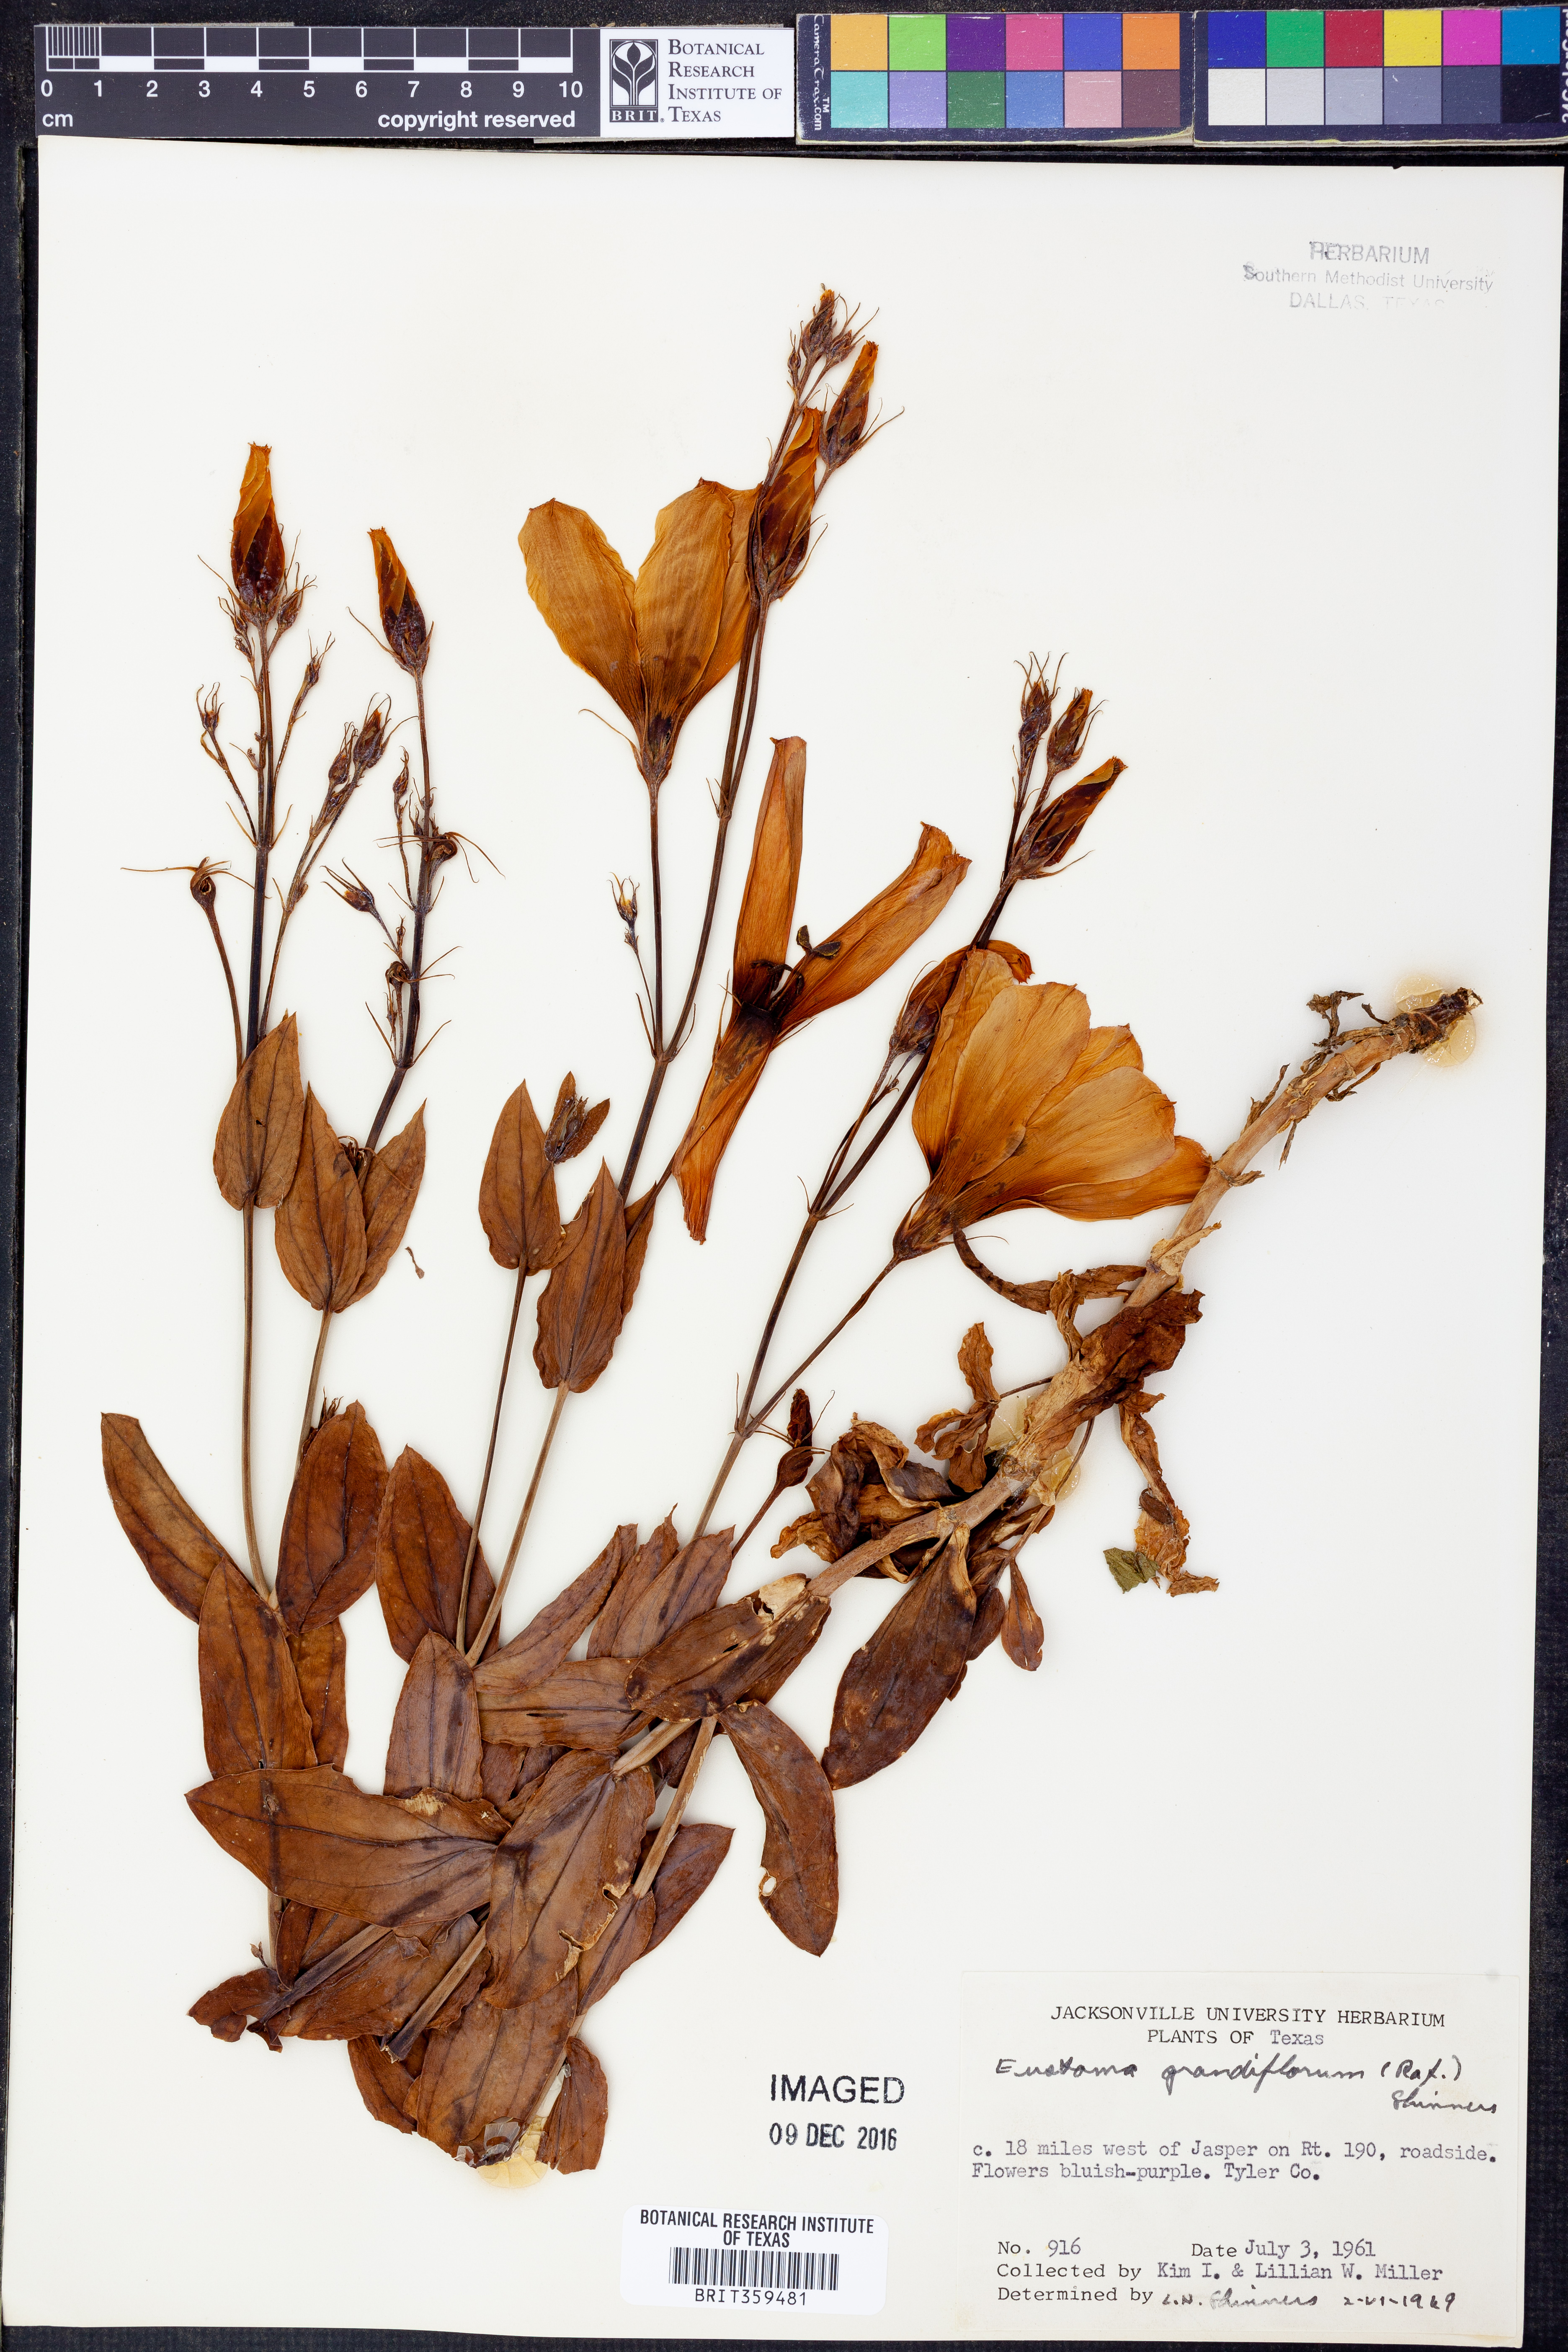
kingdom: Plantae
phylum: Tracheophyta
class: Magnoliopsida
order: Gentianales
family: Gentianaceae
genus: Eustoma
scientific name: Eustoma russellianum
